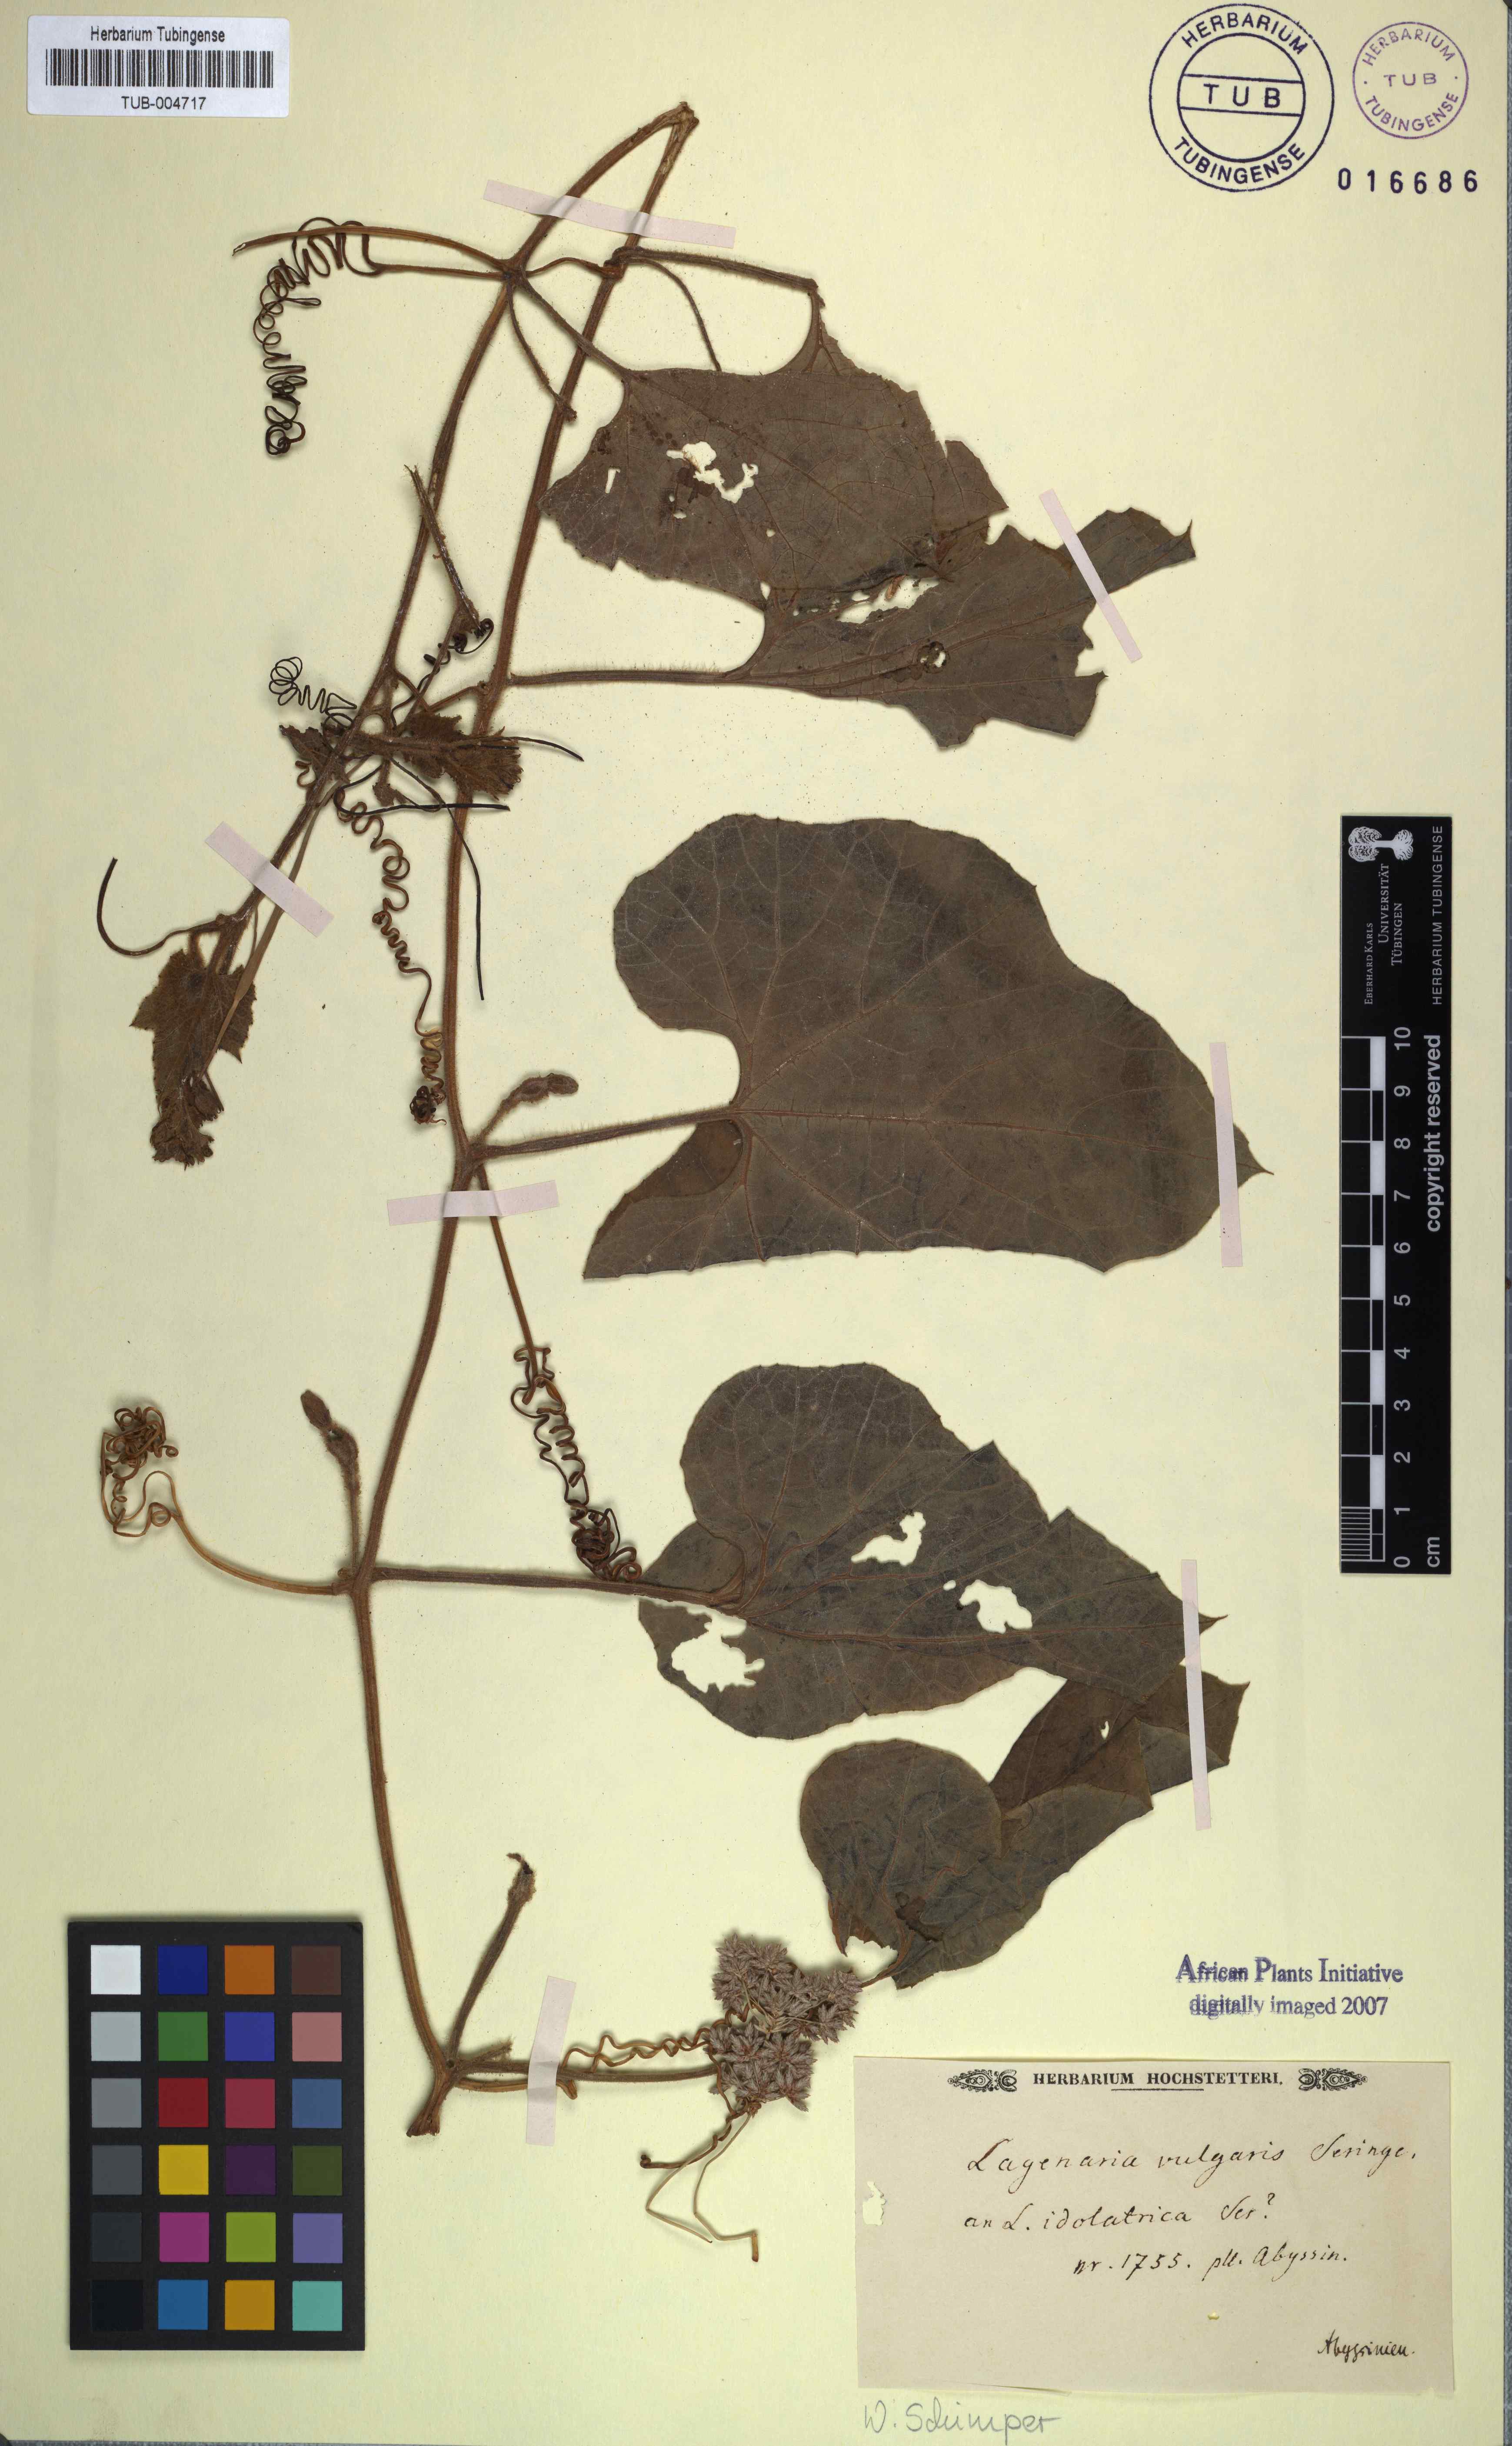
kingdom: Plantae
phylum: Tracheophyta
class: Magnoliopsida
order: Cucurbitales
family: Cucurbitaceae
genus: Lagenaria
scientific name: Lagenaria siceraria
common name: Bottle gourd
